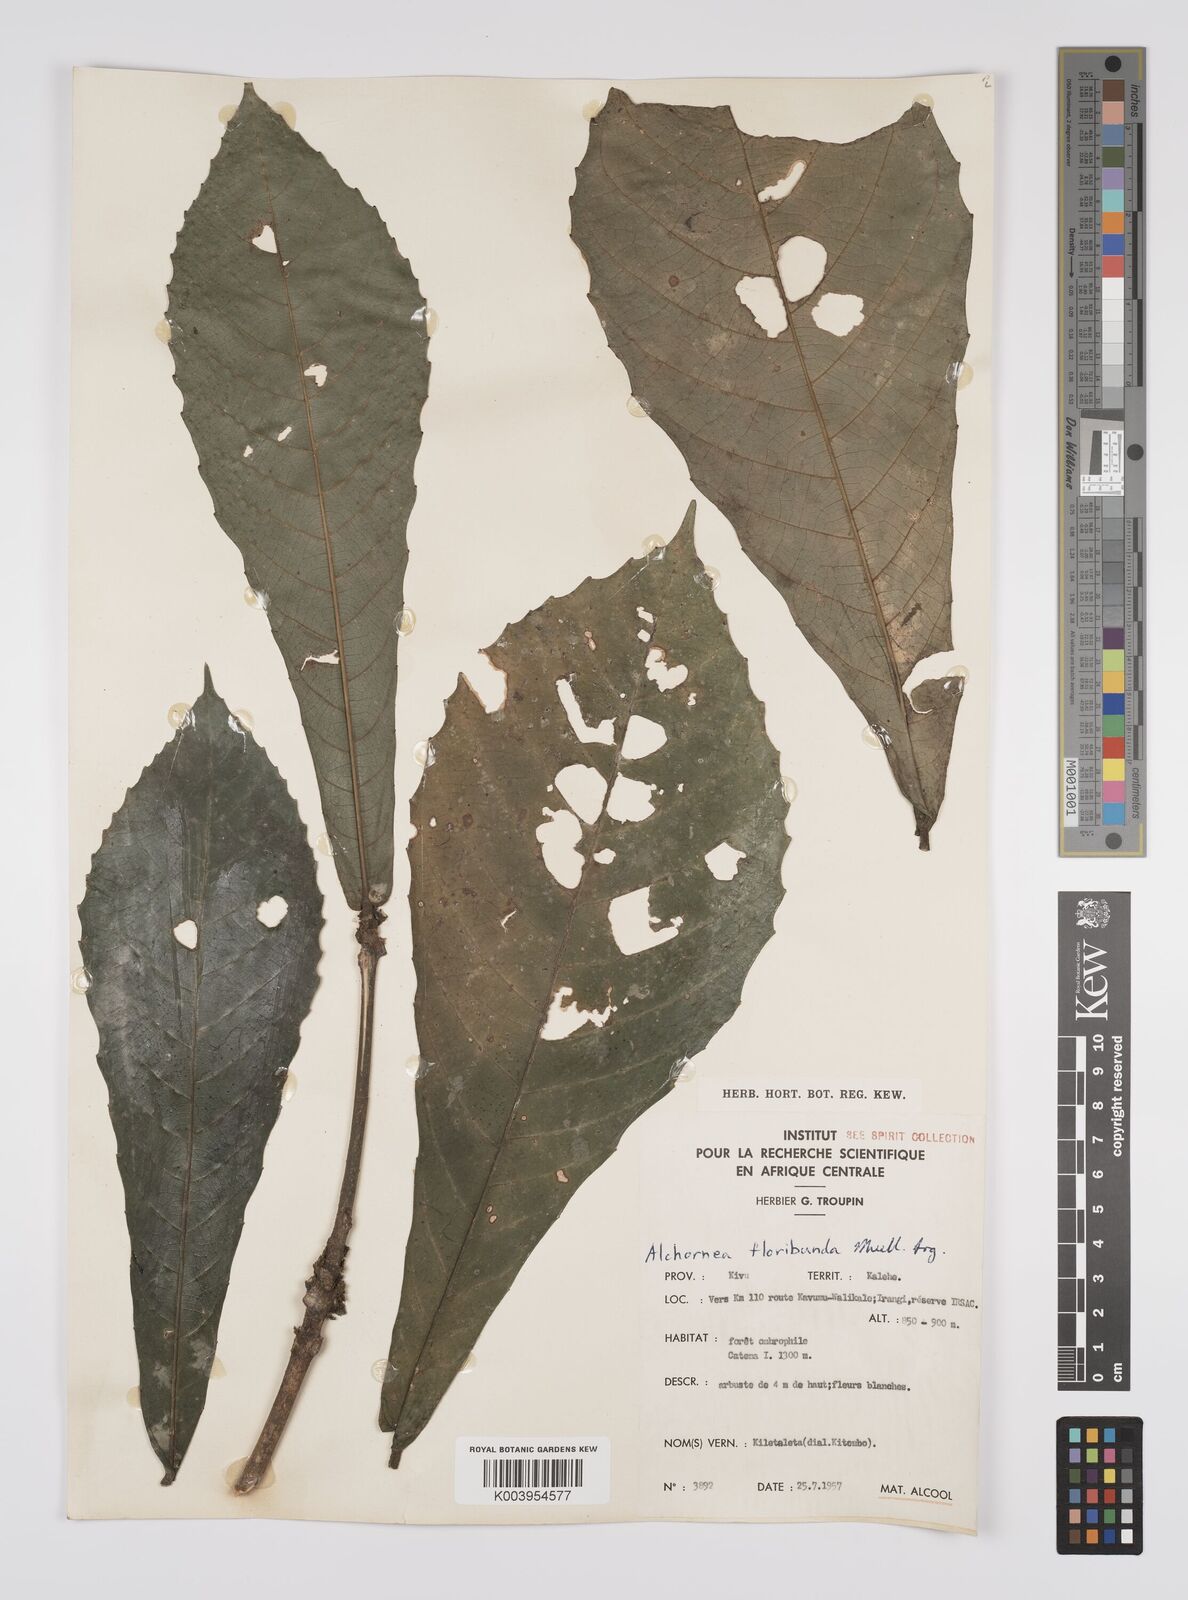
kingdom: Plantae
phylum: Tracheophyta
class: Magnoliopsida
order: Malpighiales
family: Euphorbiaceae
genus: Alchornea
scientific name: Alchornea floribunda
